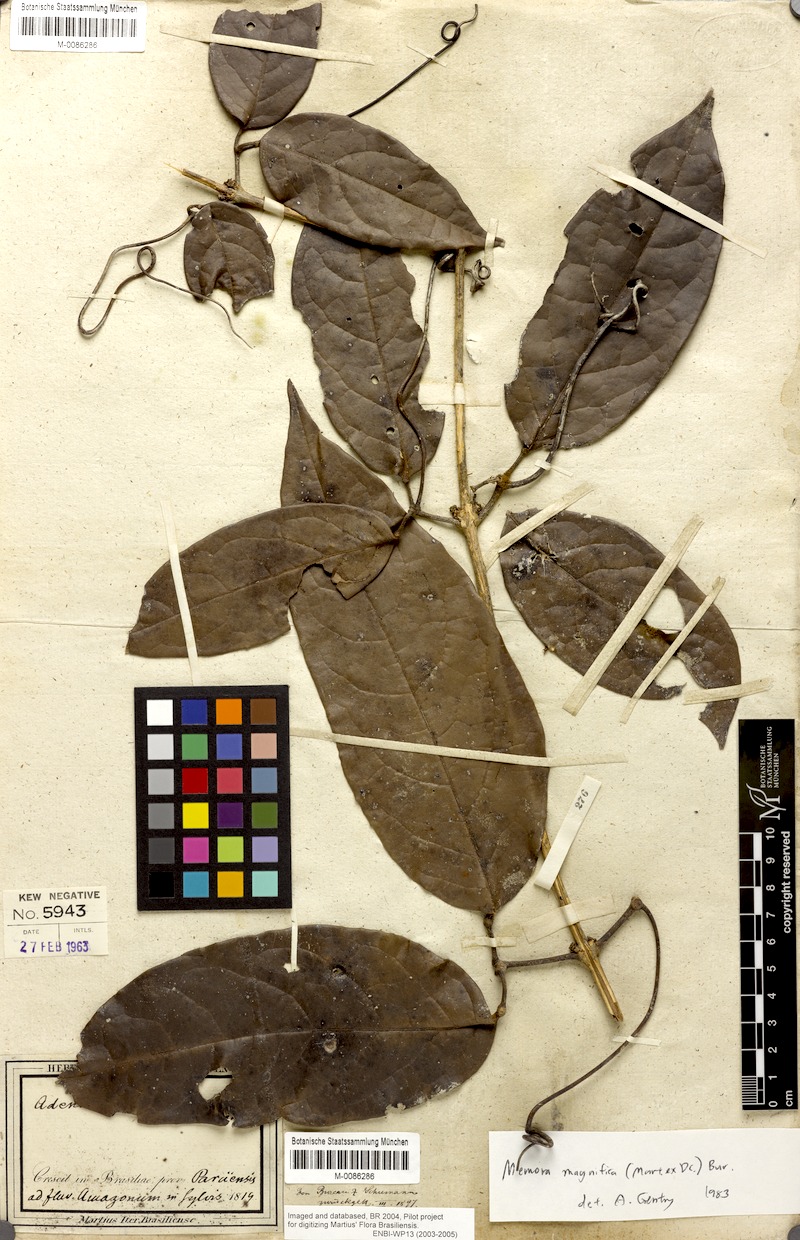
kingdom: Plantae
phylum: Tracheophyta
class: Magnoliopsida
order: Lamiales
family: Bignoniaceae
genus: Adenocalymma
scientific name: Adenocalymma magnificum
